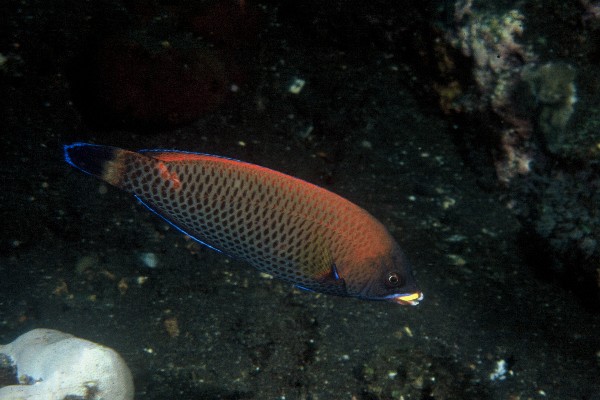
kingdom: Animalia
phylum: Chordata
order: Perciformes
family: Labridae
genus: Pseudodax
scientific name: Pseudodax moluccanus
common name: Chiseltooth wrasse
